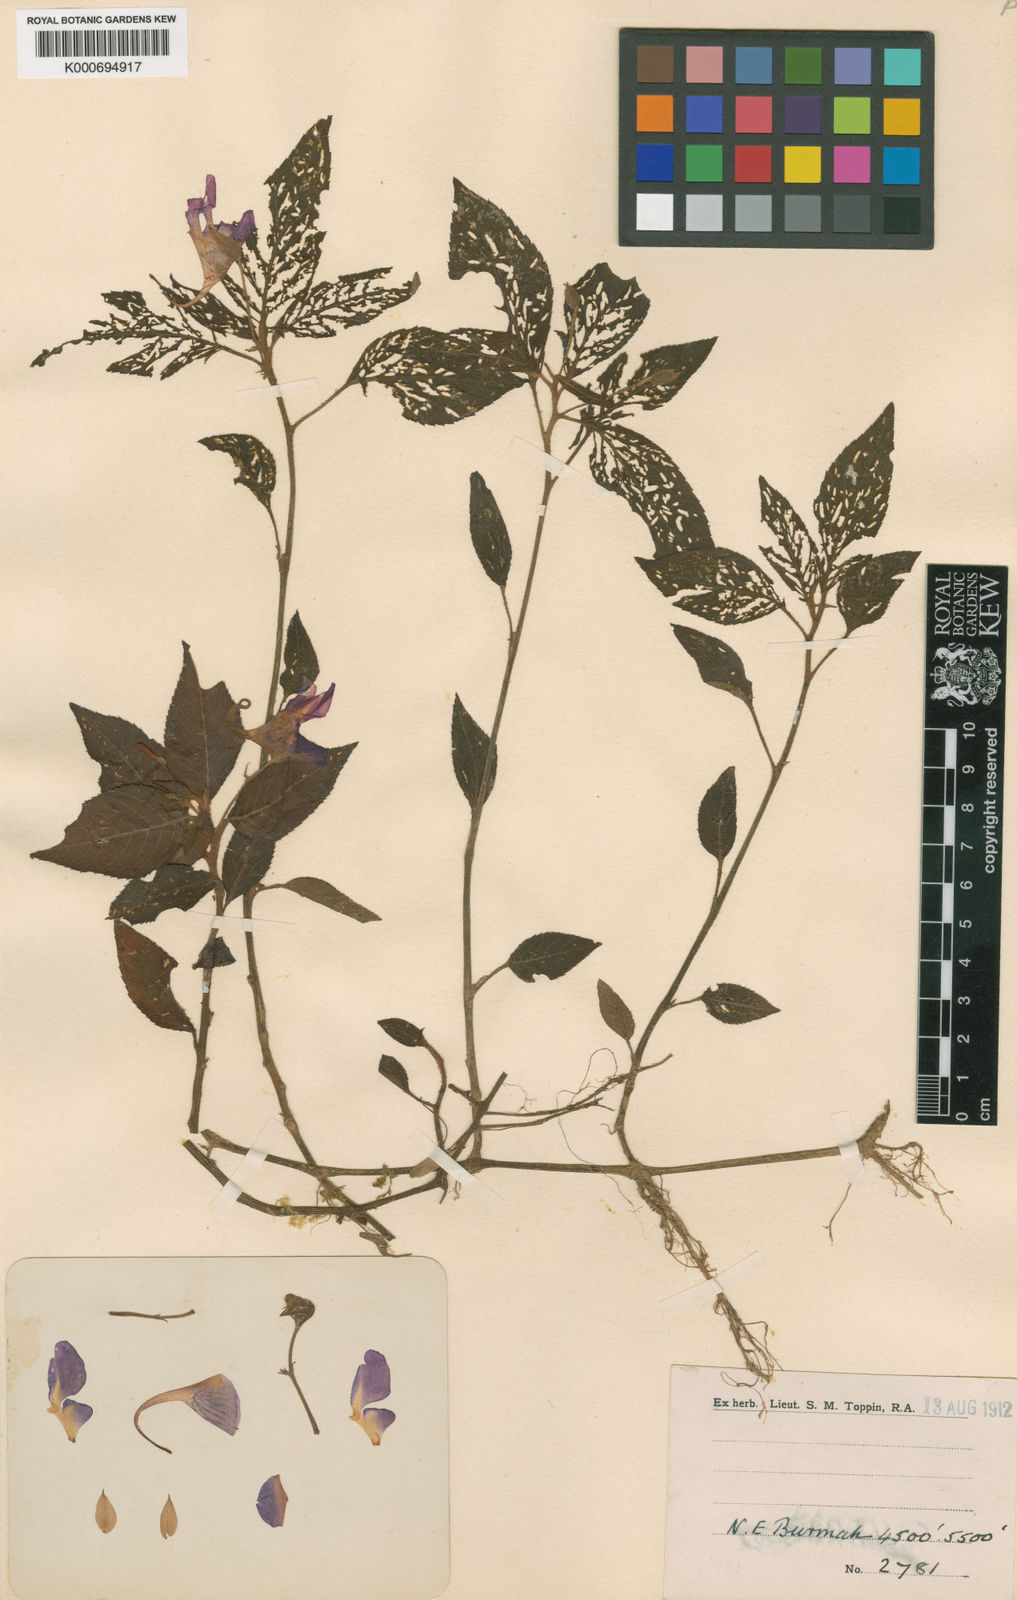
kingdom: Plantae
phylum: Tracheophyta
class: Magnoliopsida
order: Ericales
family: Balsaminaceae
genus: Impatiens
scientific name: Impatiens toppinii
